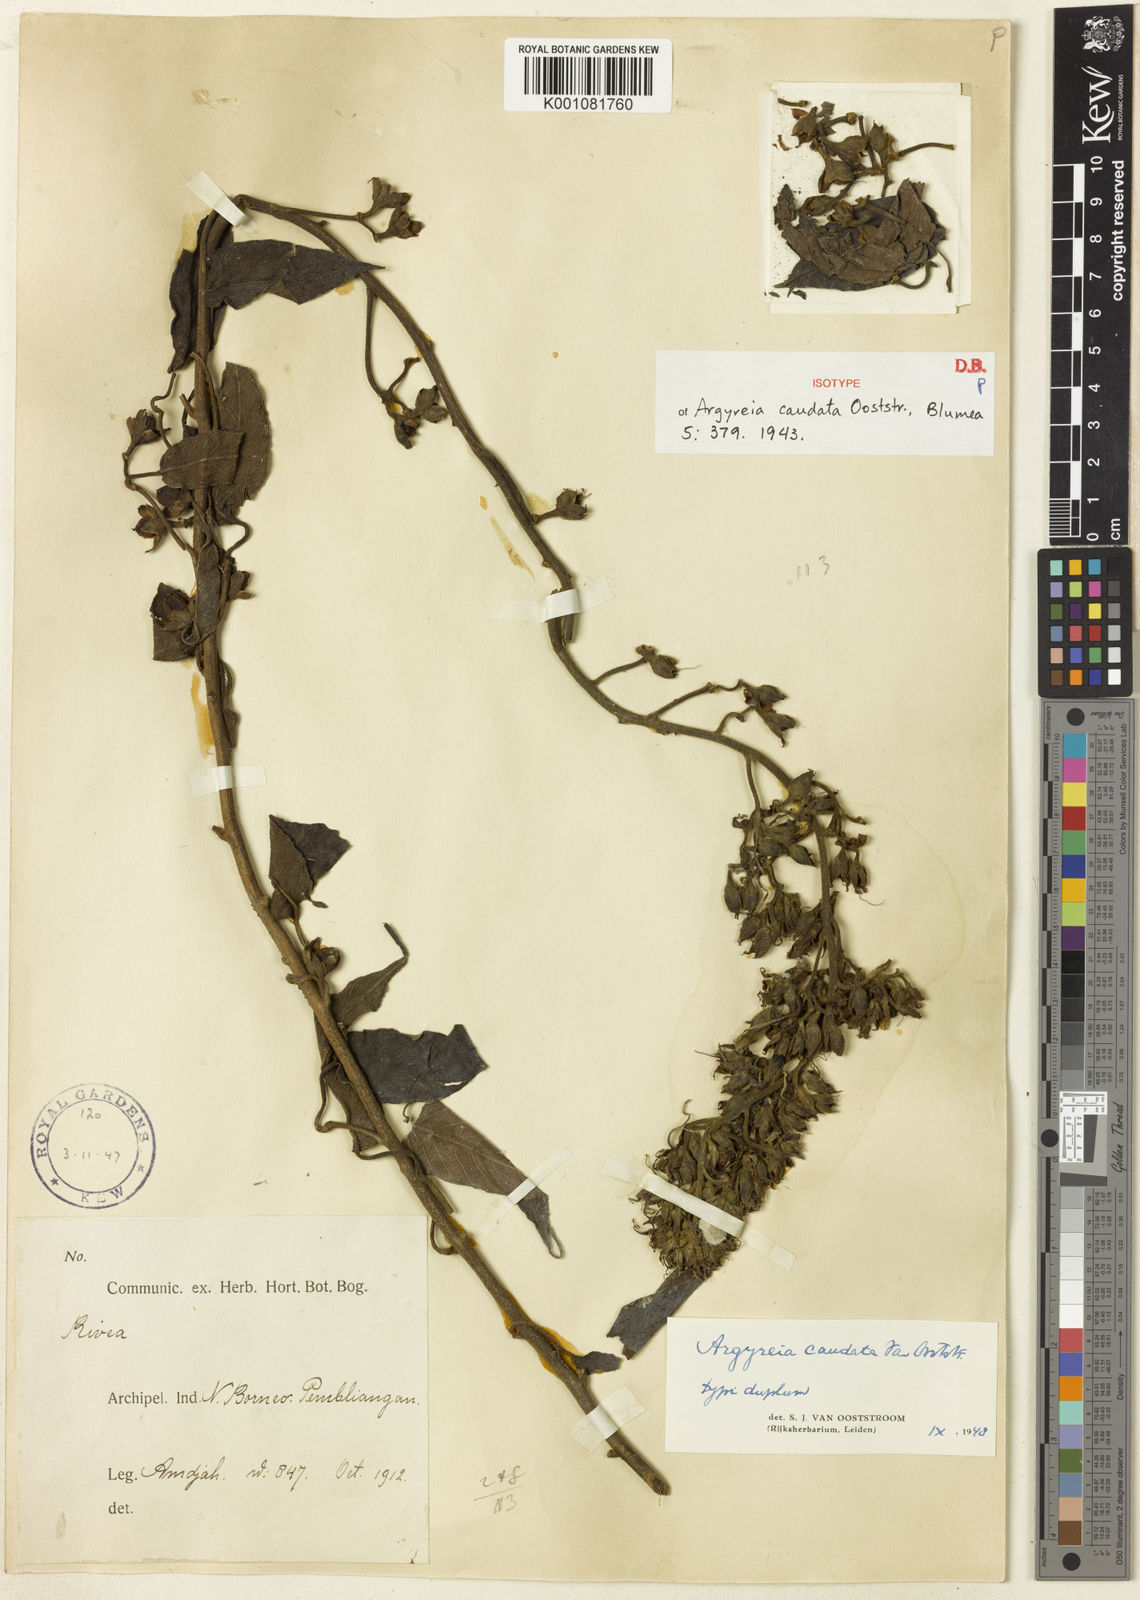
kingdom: Plantae
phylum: Tracheophyta
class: Magnoliopsida
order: Solanales
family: Convolvulaceae
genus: Argyreia
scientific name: Argyreia caudata
